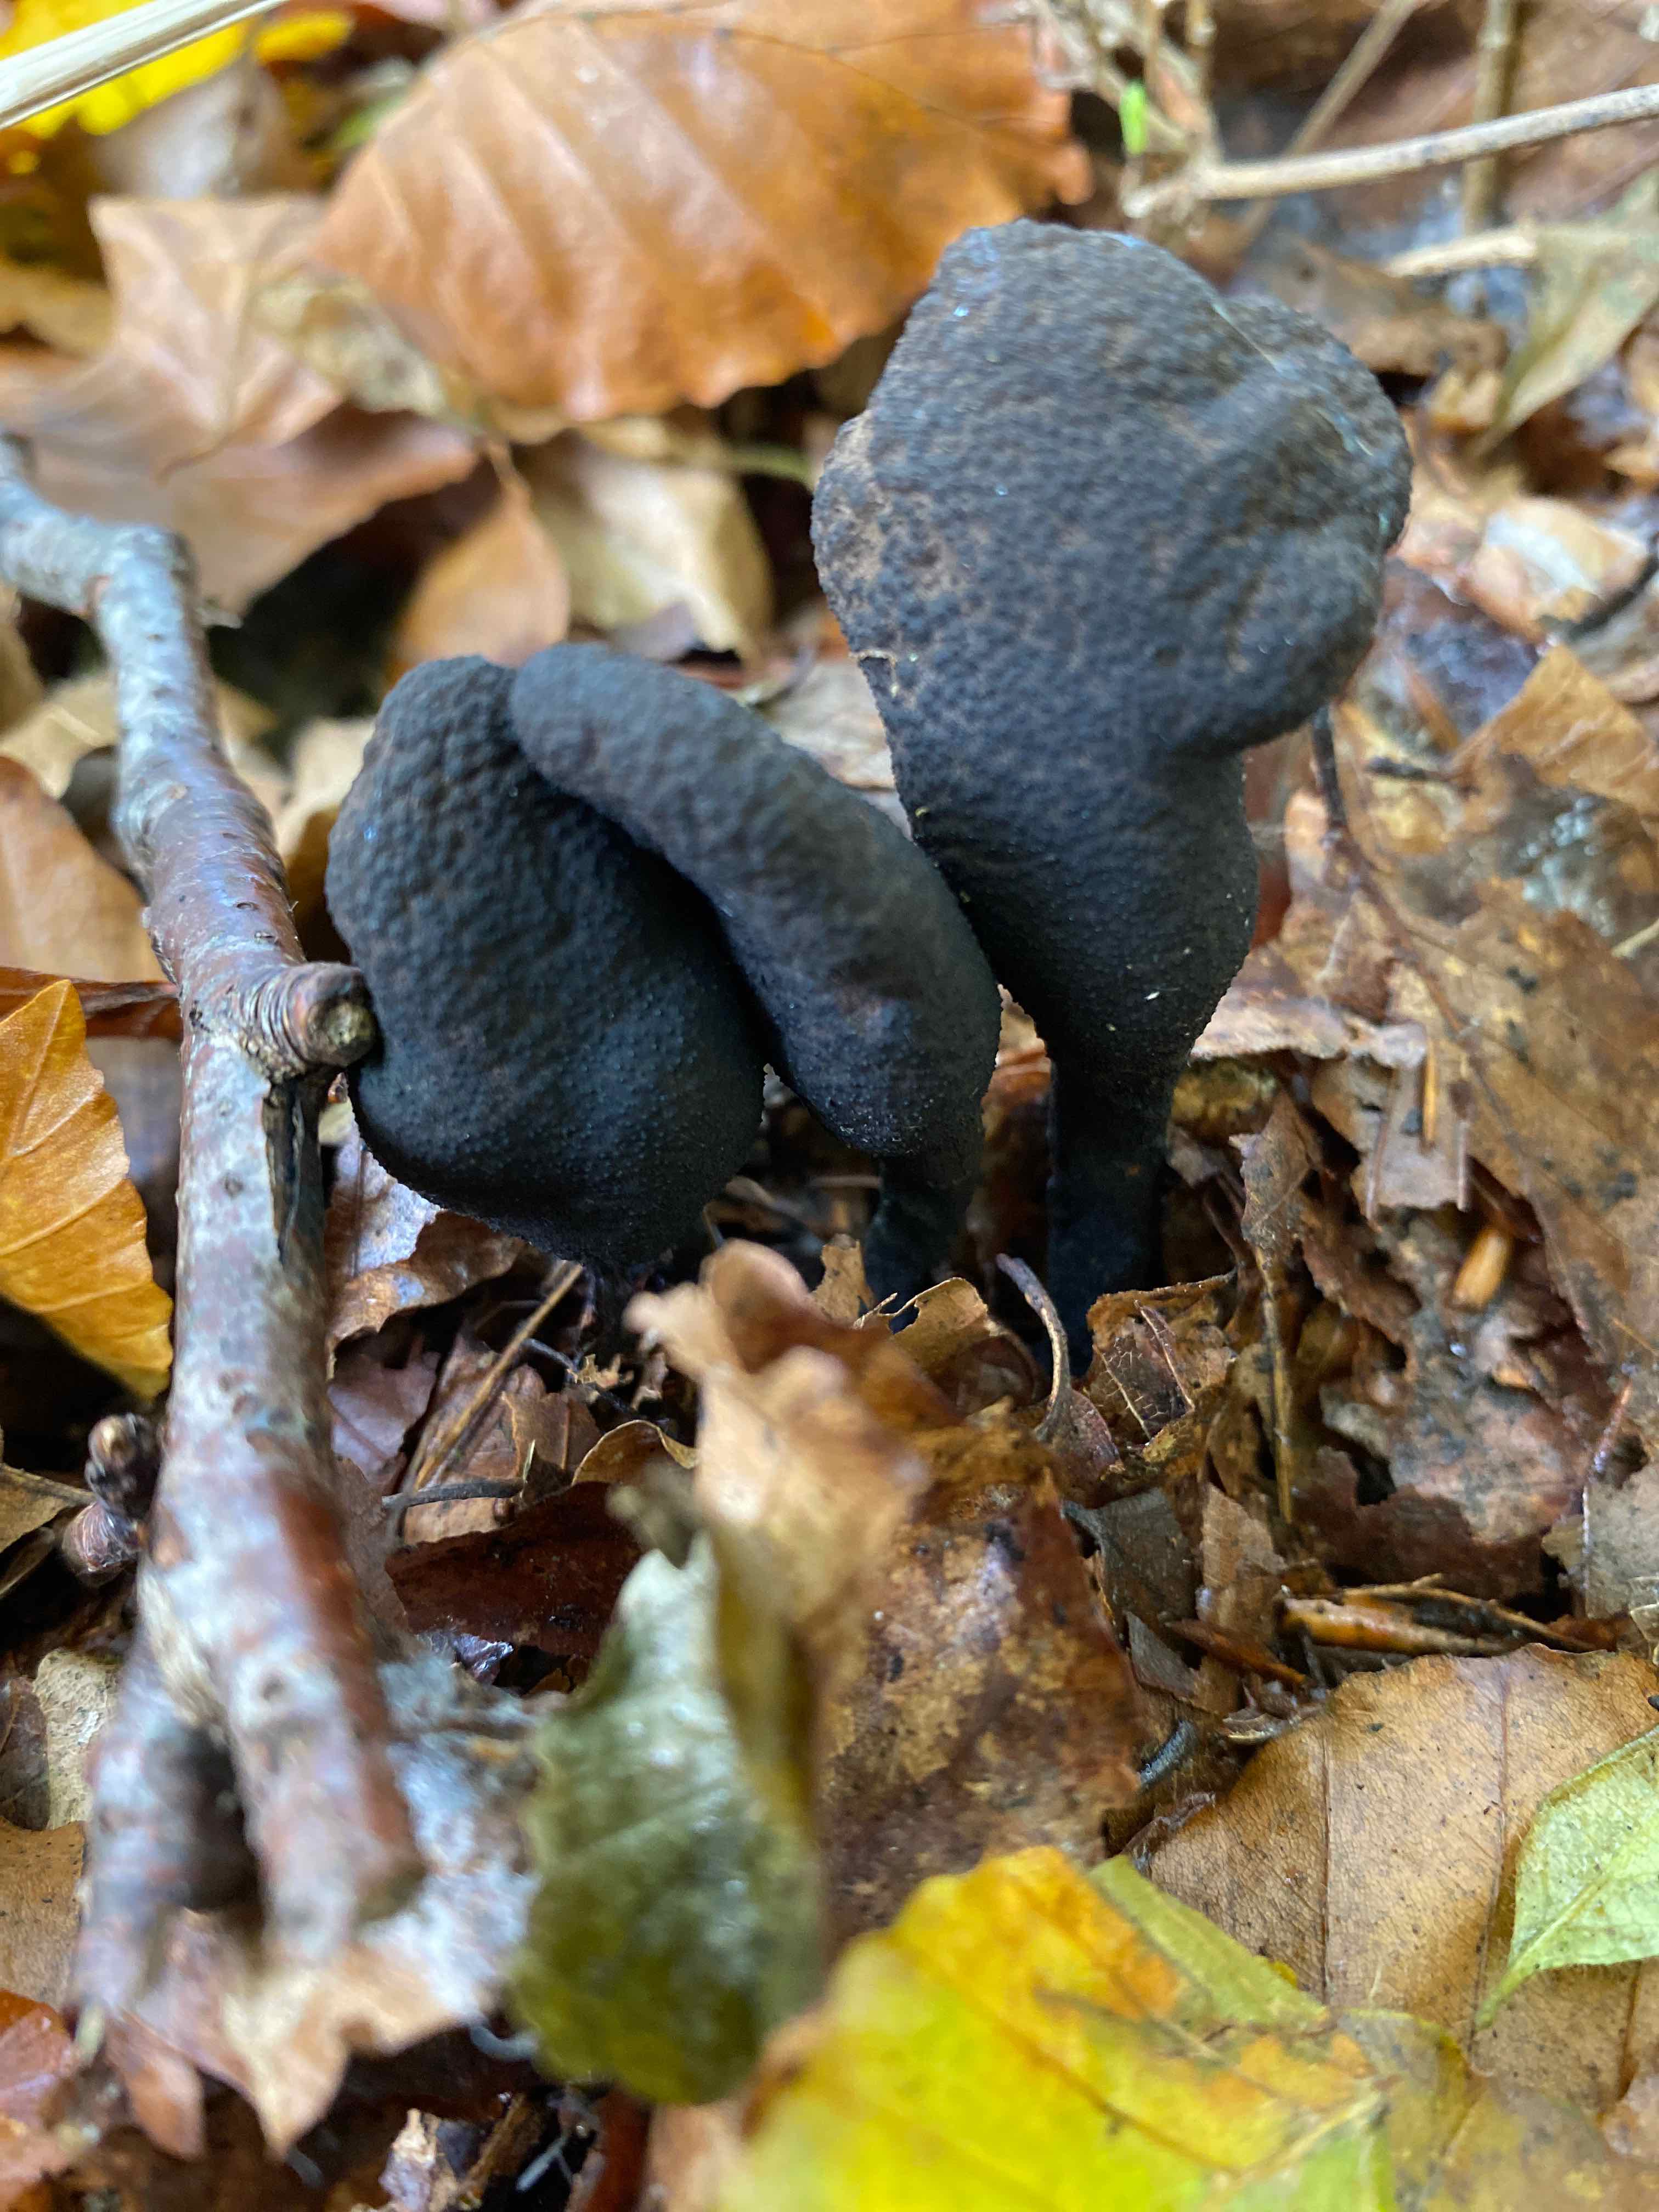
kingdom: Fungi
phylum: Ascomycota
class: Sordariomycetes
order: Xylariales
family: Xylariaceae
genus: Xylaria
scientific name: Xylaria polymorpha
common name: kølle-stødsvamp
